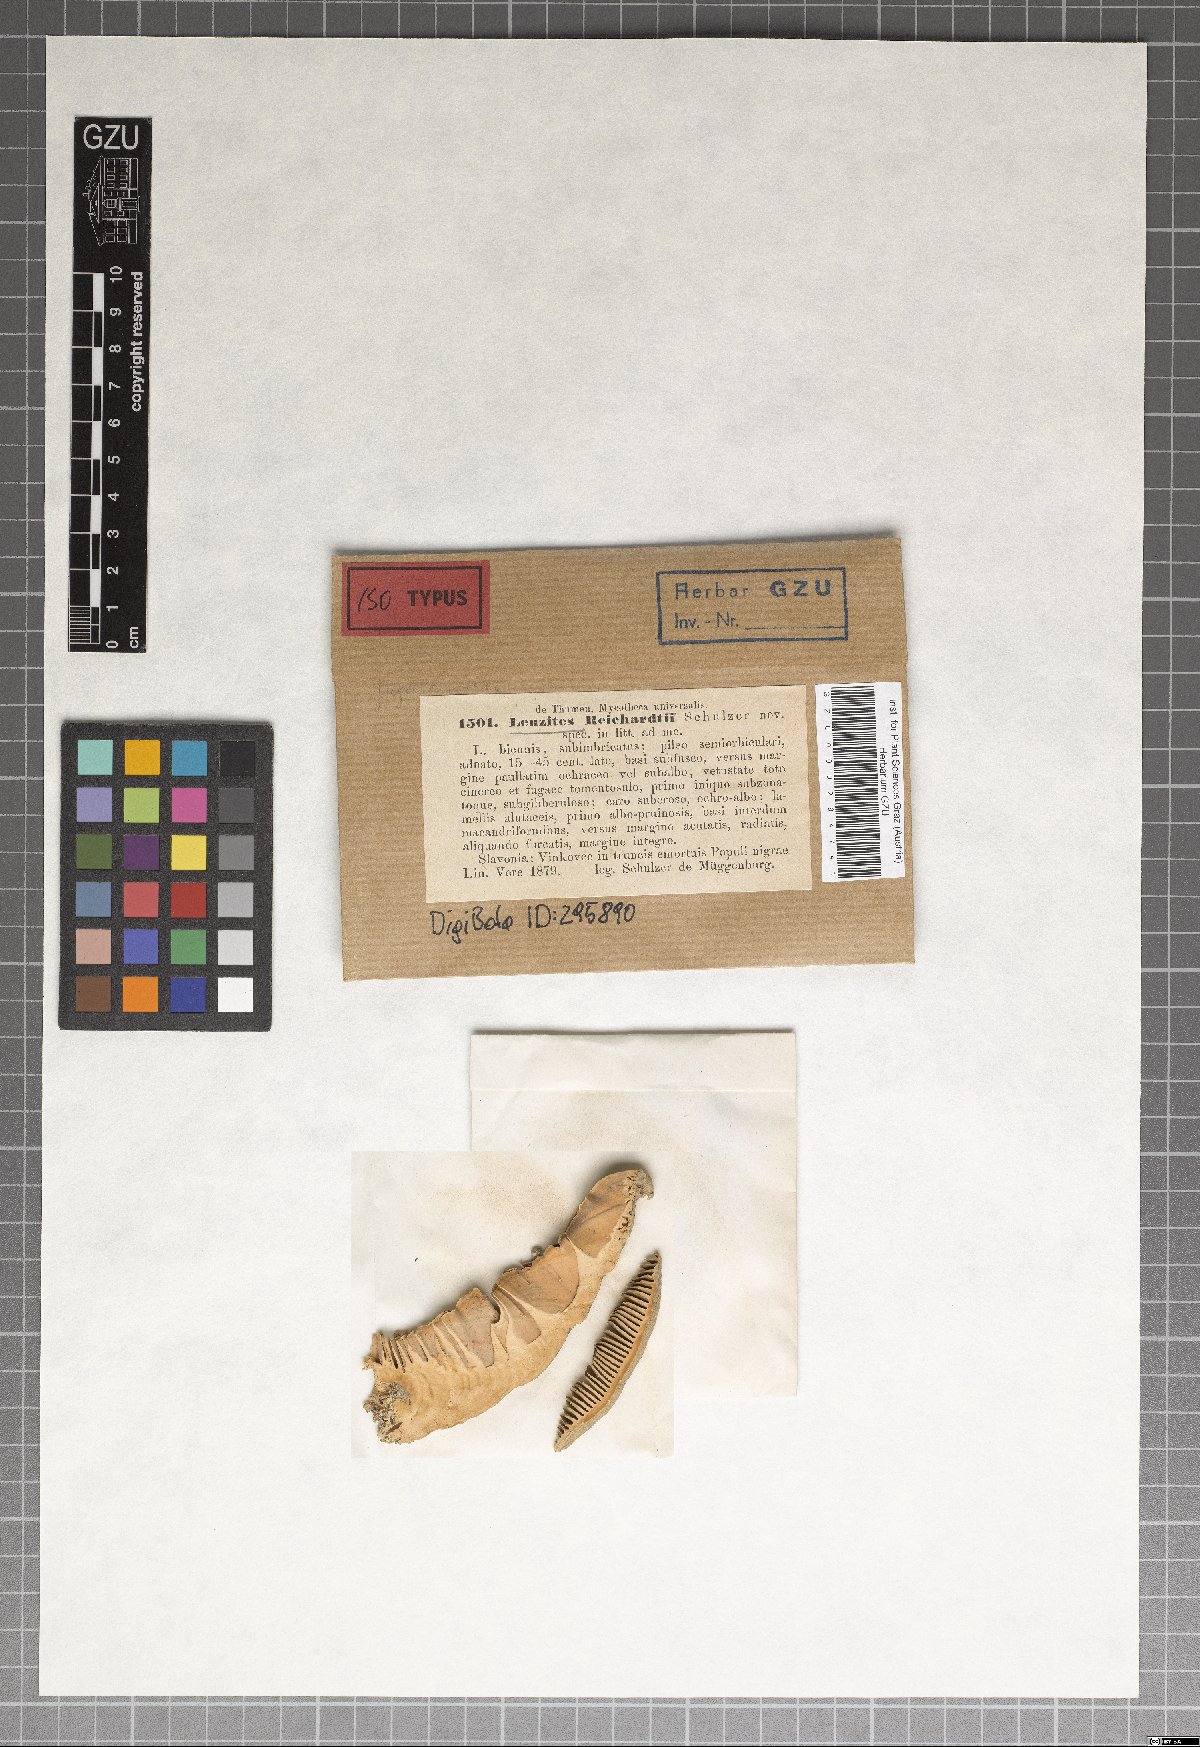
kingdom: Fungi
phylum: Basidiomycota
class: Agaricomycetes
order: Polyporales
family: Polyporaceae
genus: Cellulariella
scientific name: Cellulariella warnieri
